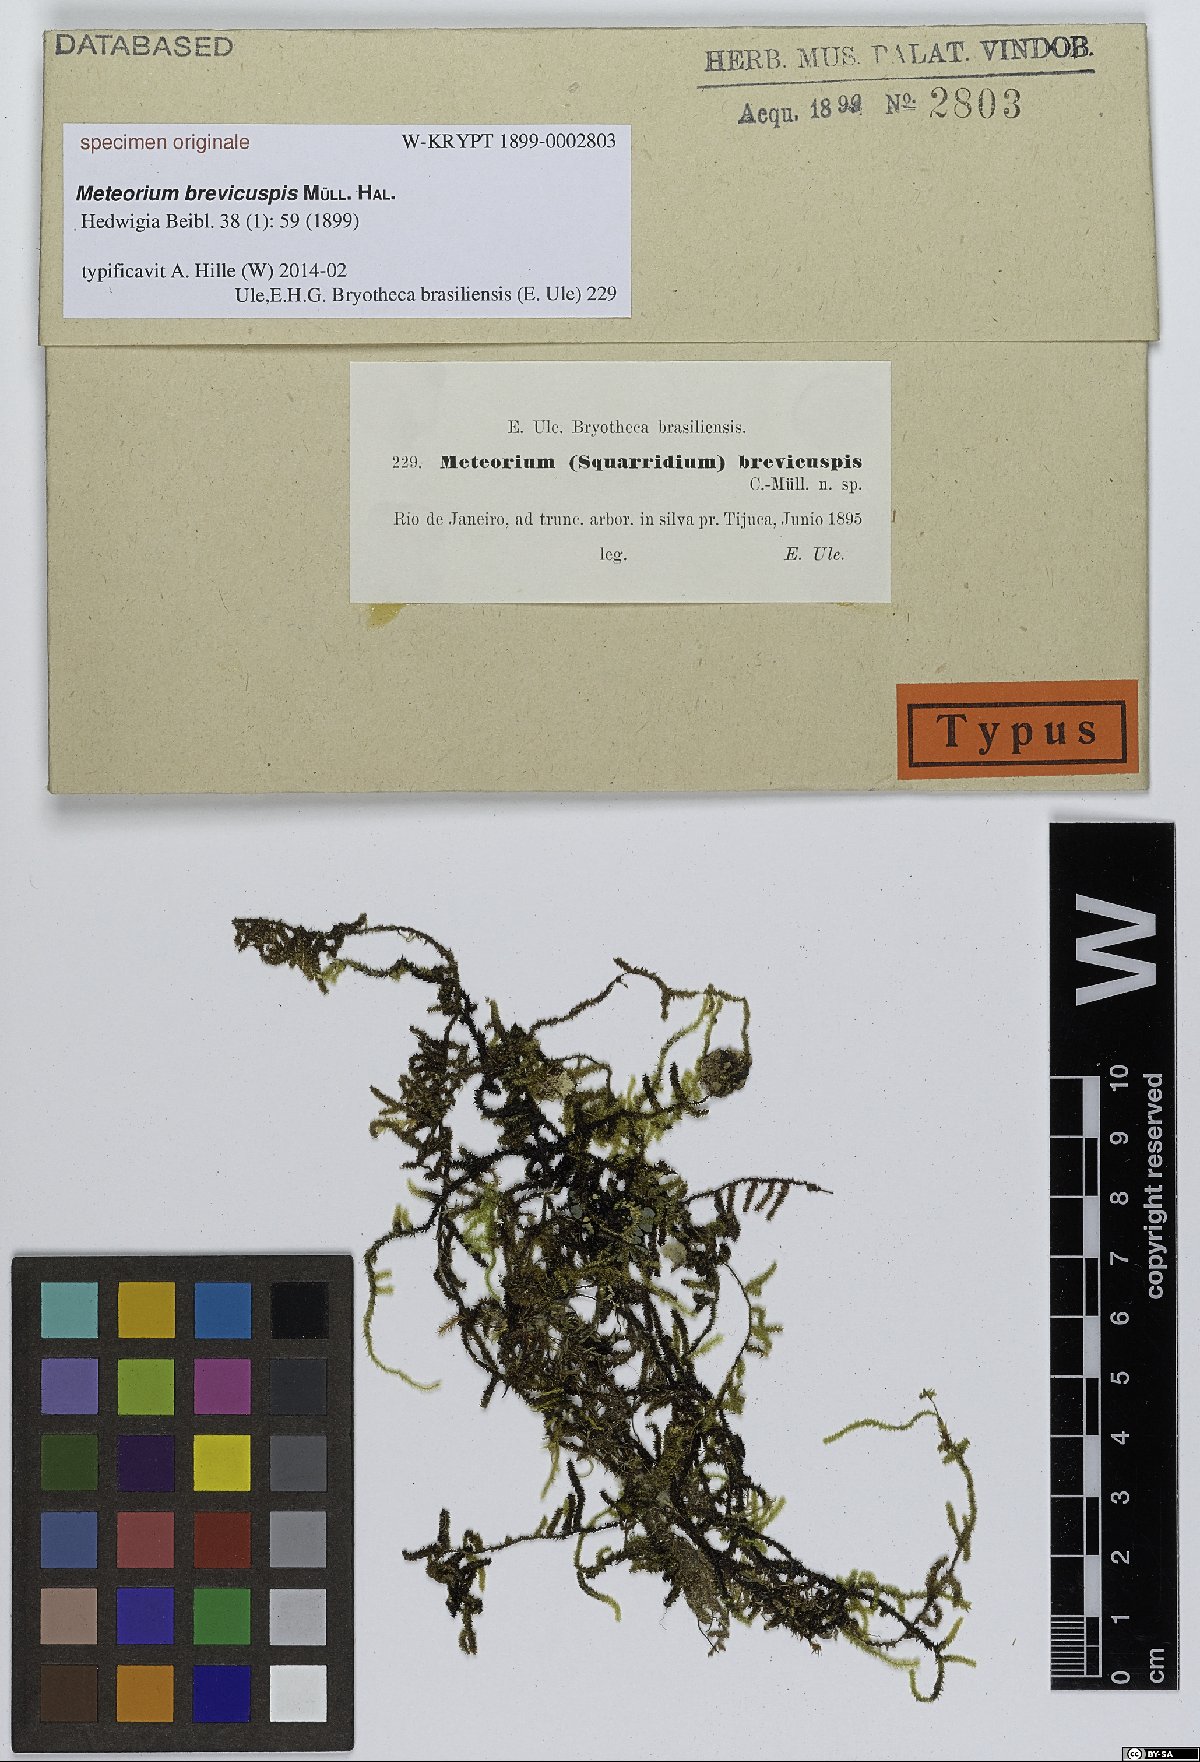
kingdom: Plantae
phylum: Bryophyta
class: Bryopsida
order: Hypnales
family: Meteoriaceae
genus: Meteorium
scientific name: Meteorium
